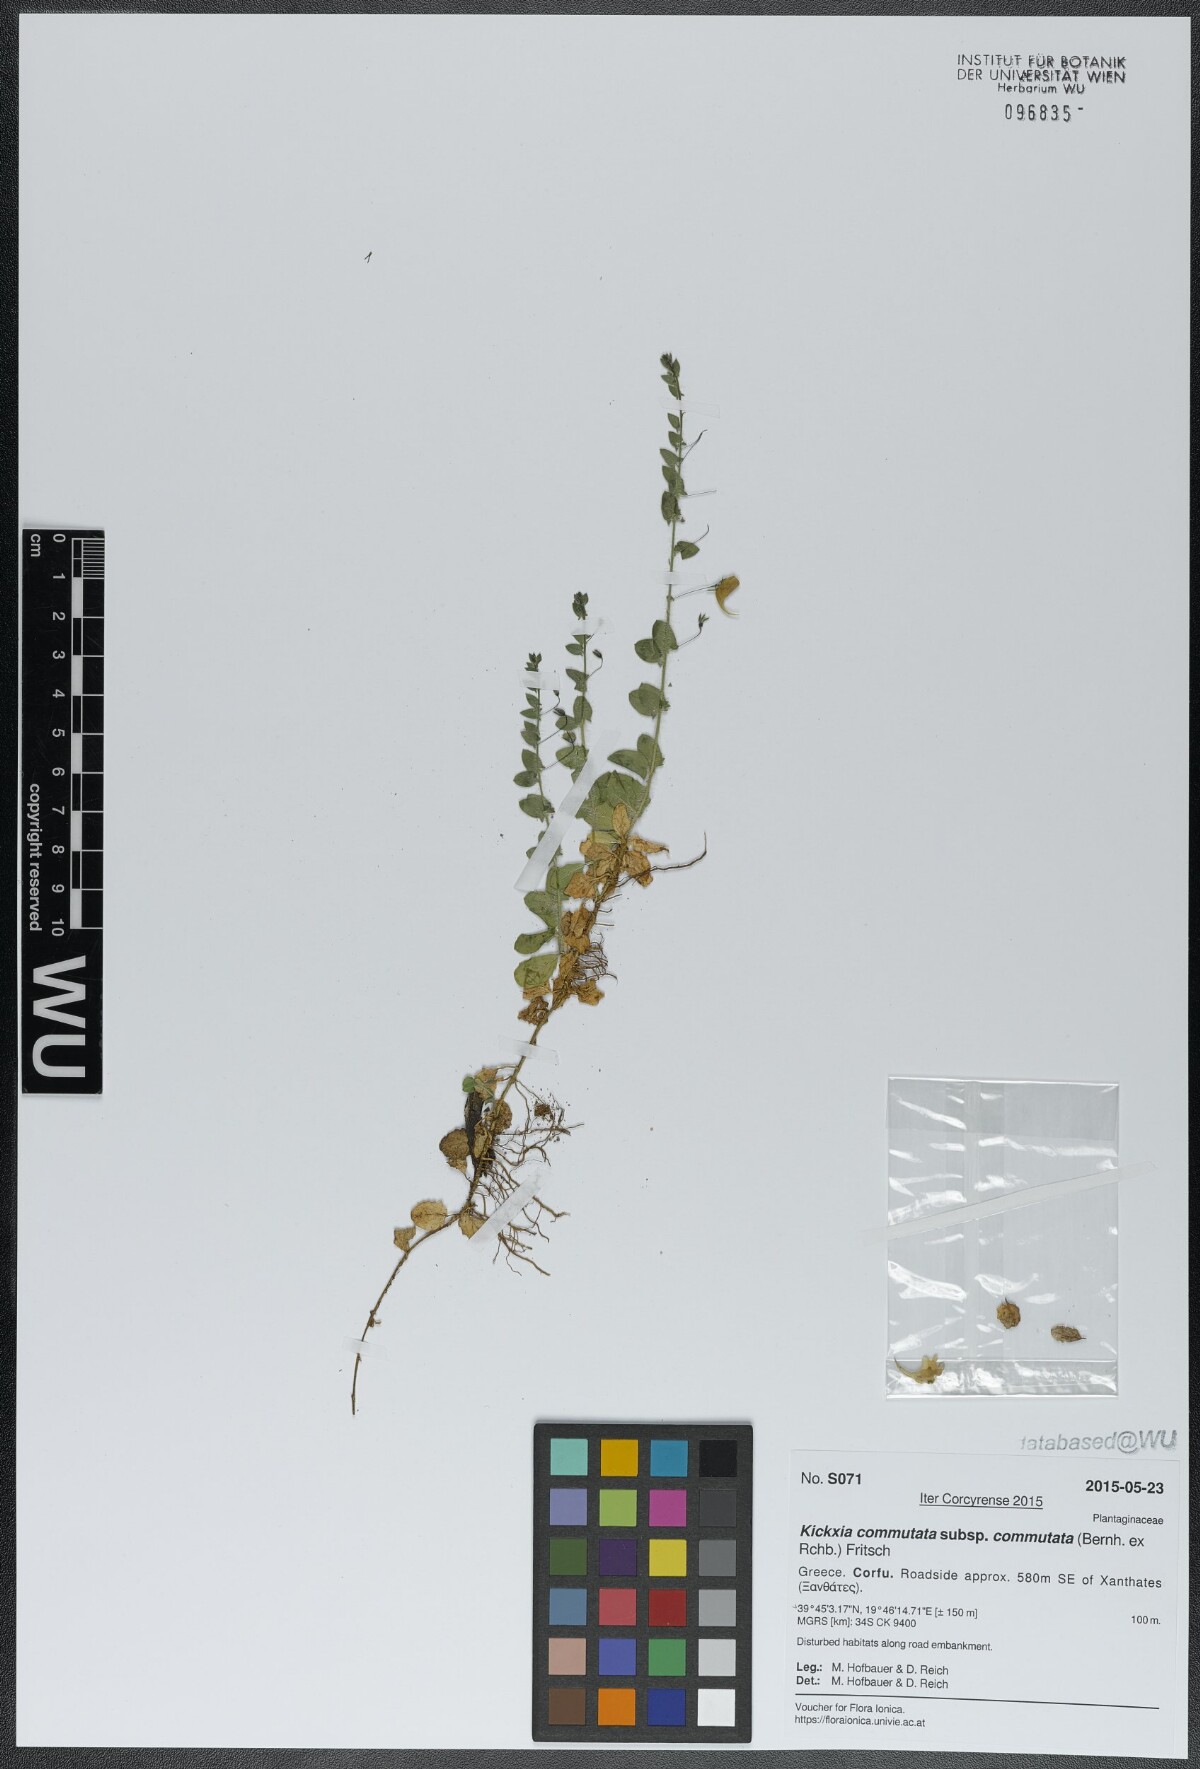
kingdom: Plantae
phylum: Tracheophyta
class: Magnoliopsida
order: Lamiales
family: Plantaginaceae
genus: Kickxia
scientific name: Kickxia commutata
